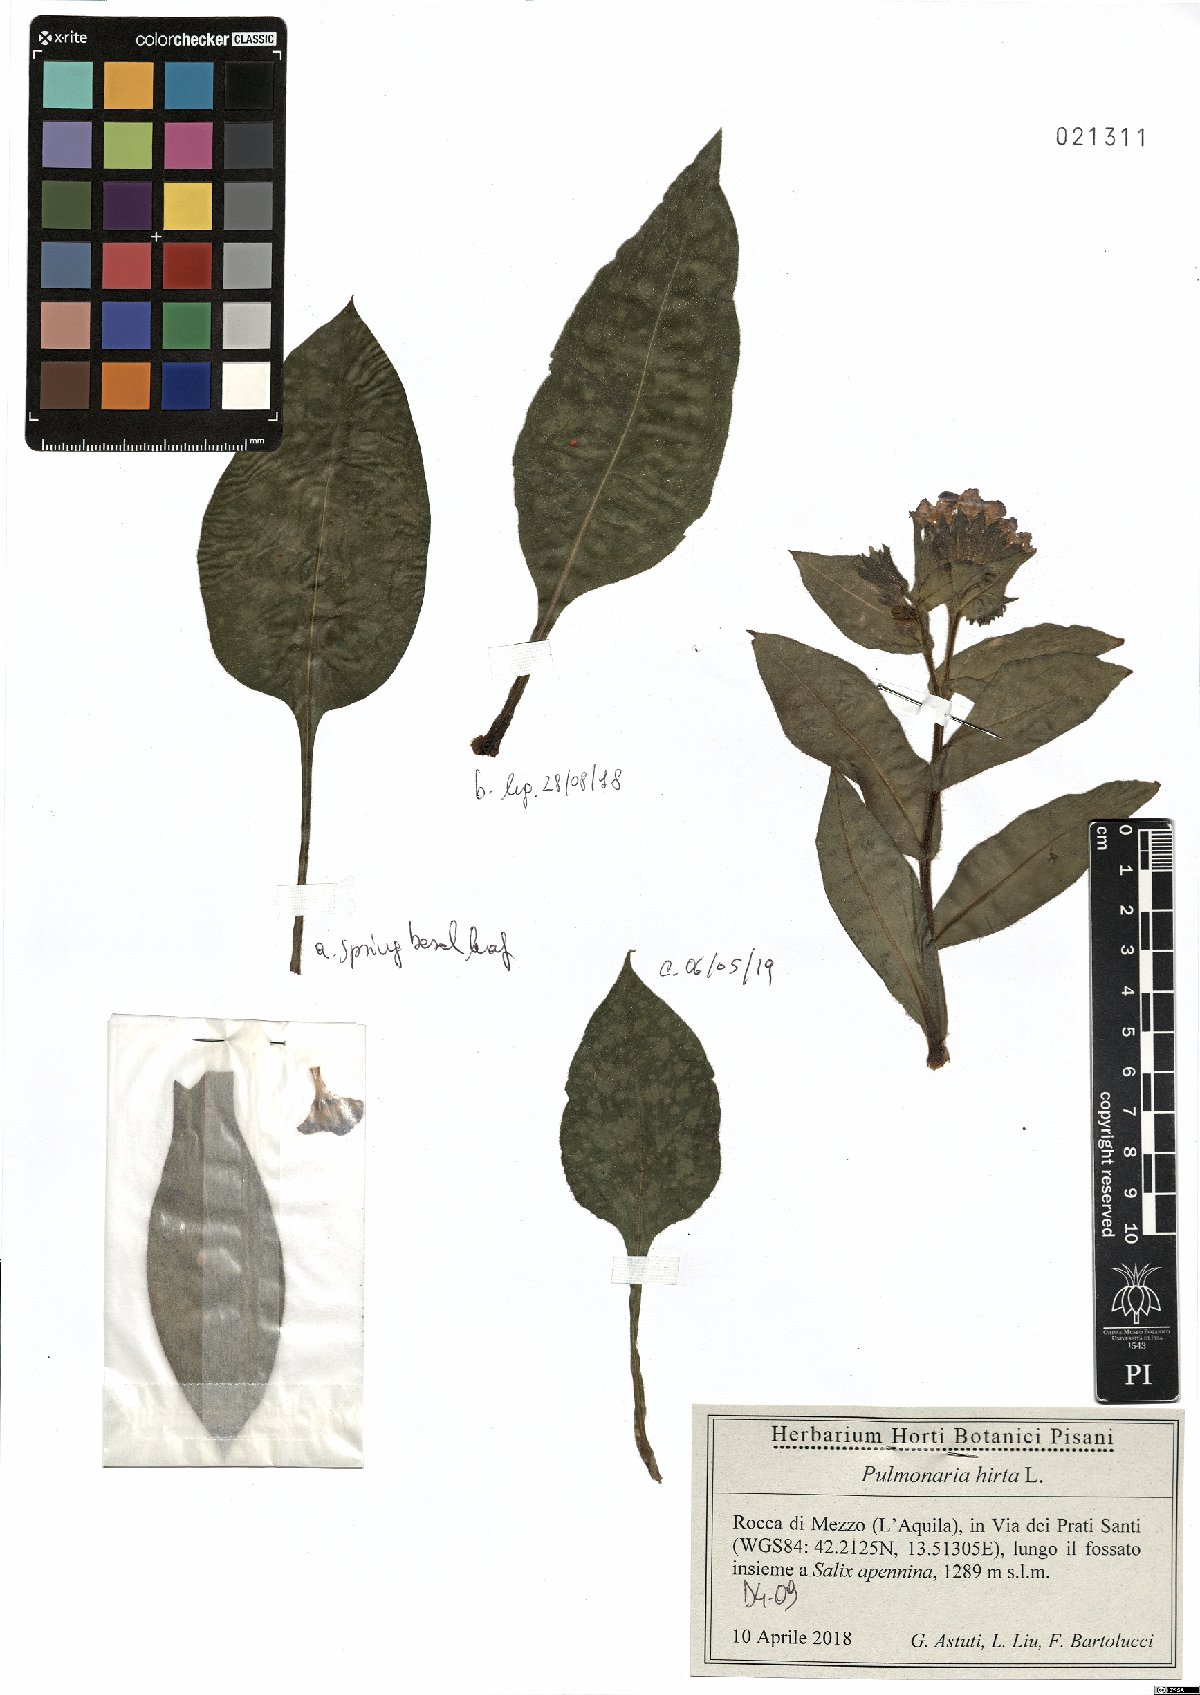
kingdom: Plantae
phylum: Tracheophyta
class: Magnoliopsida
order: Boraginales
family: Boraginaceae
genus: Pulmonaria
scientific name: Pulmonaria hirta
